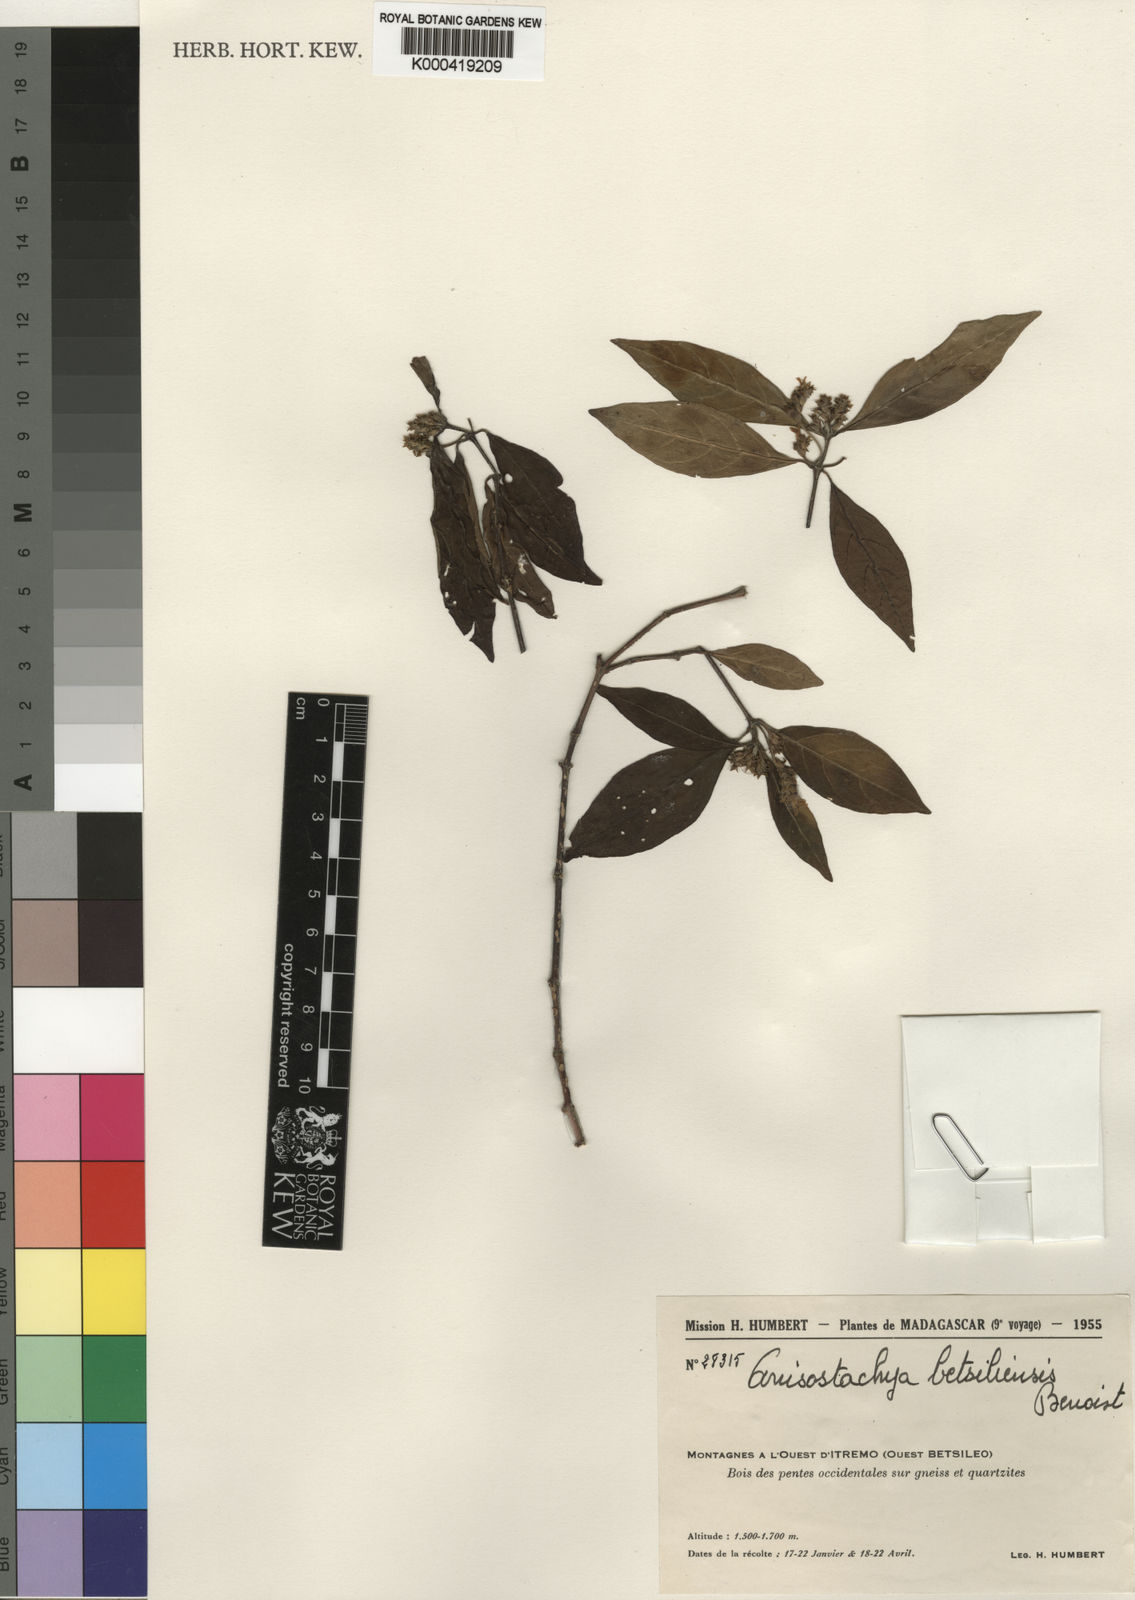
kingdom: Plantae
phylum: Tracheophyta
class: Magnoliopsida
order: Lamiales
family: Acanthaceae
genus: Justicia
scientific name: Justicia
